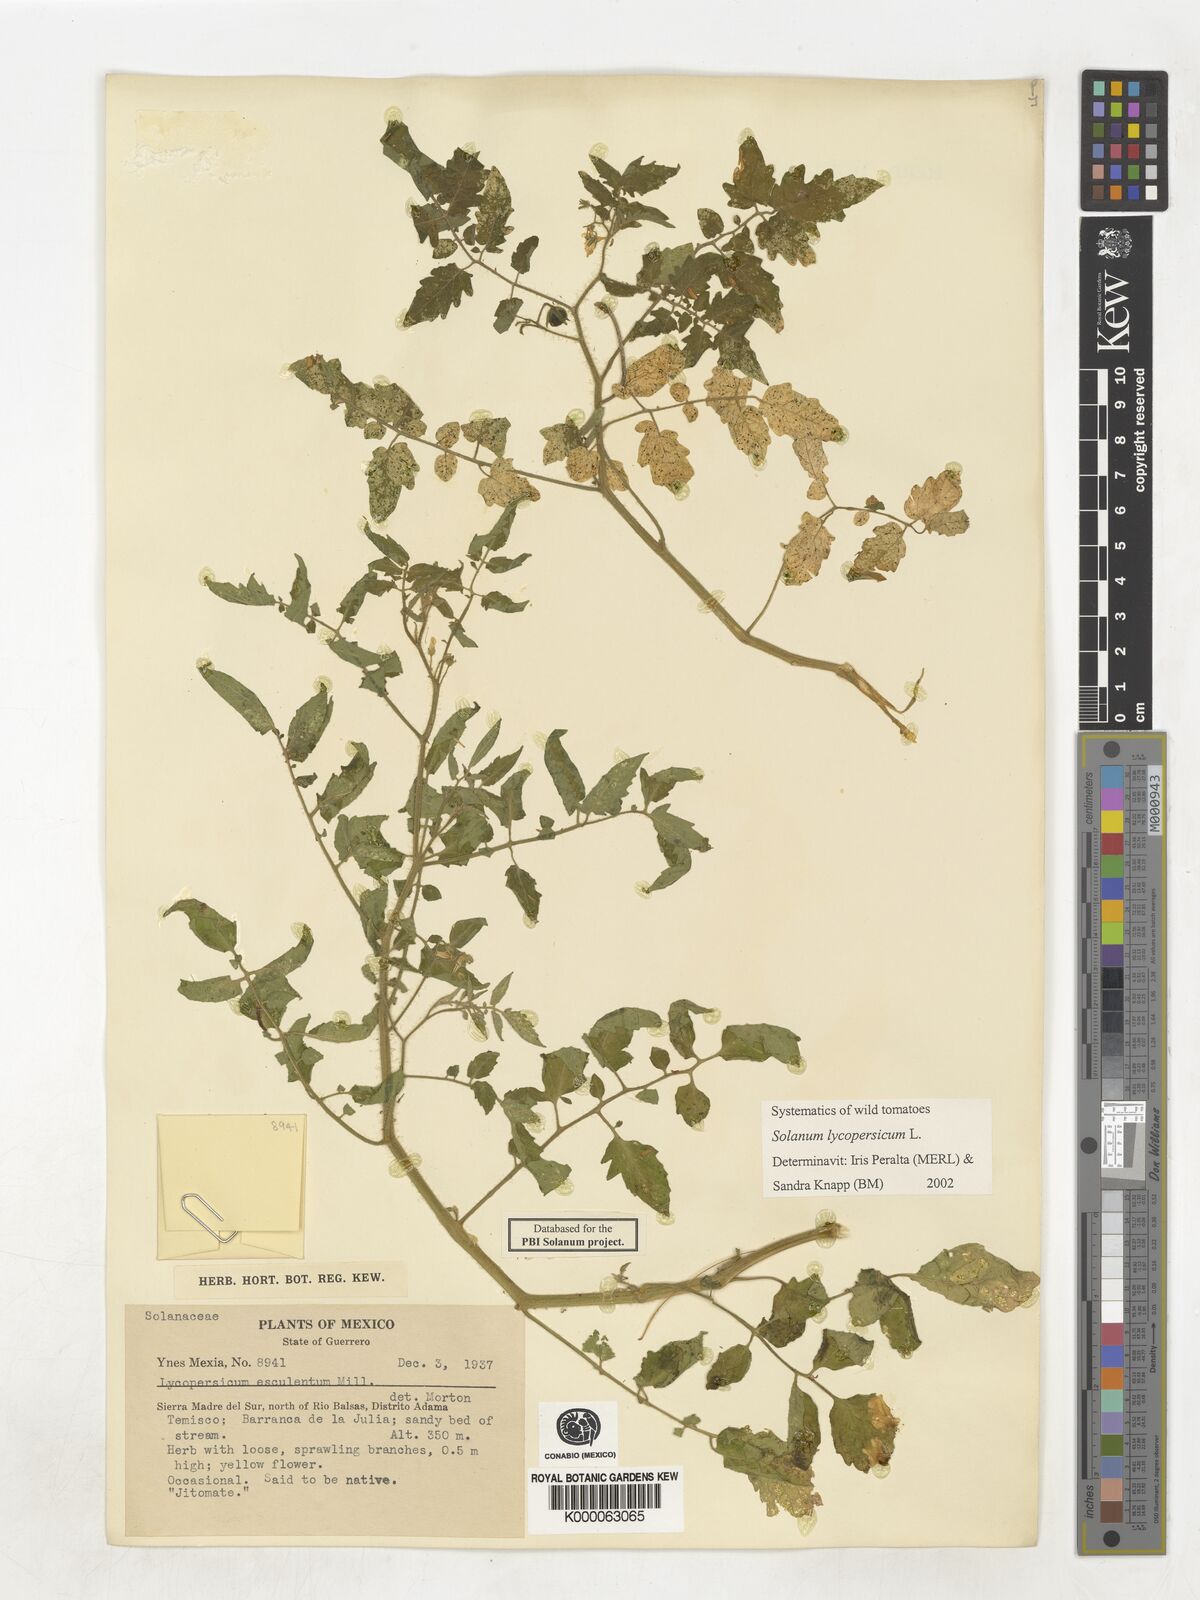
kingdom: Plantae
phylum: Tracheophyta
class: Magnoliopsida
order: Solanales
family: Solanaceae
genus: Lycopersicon
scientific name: Lycopersicon
